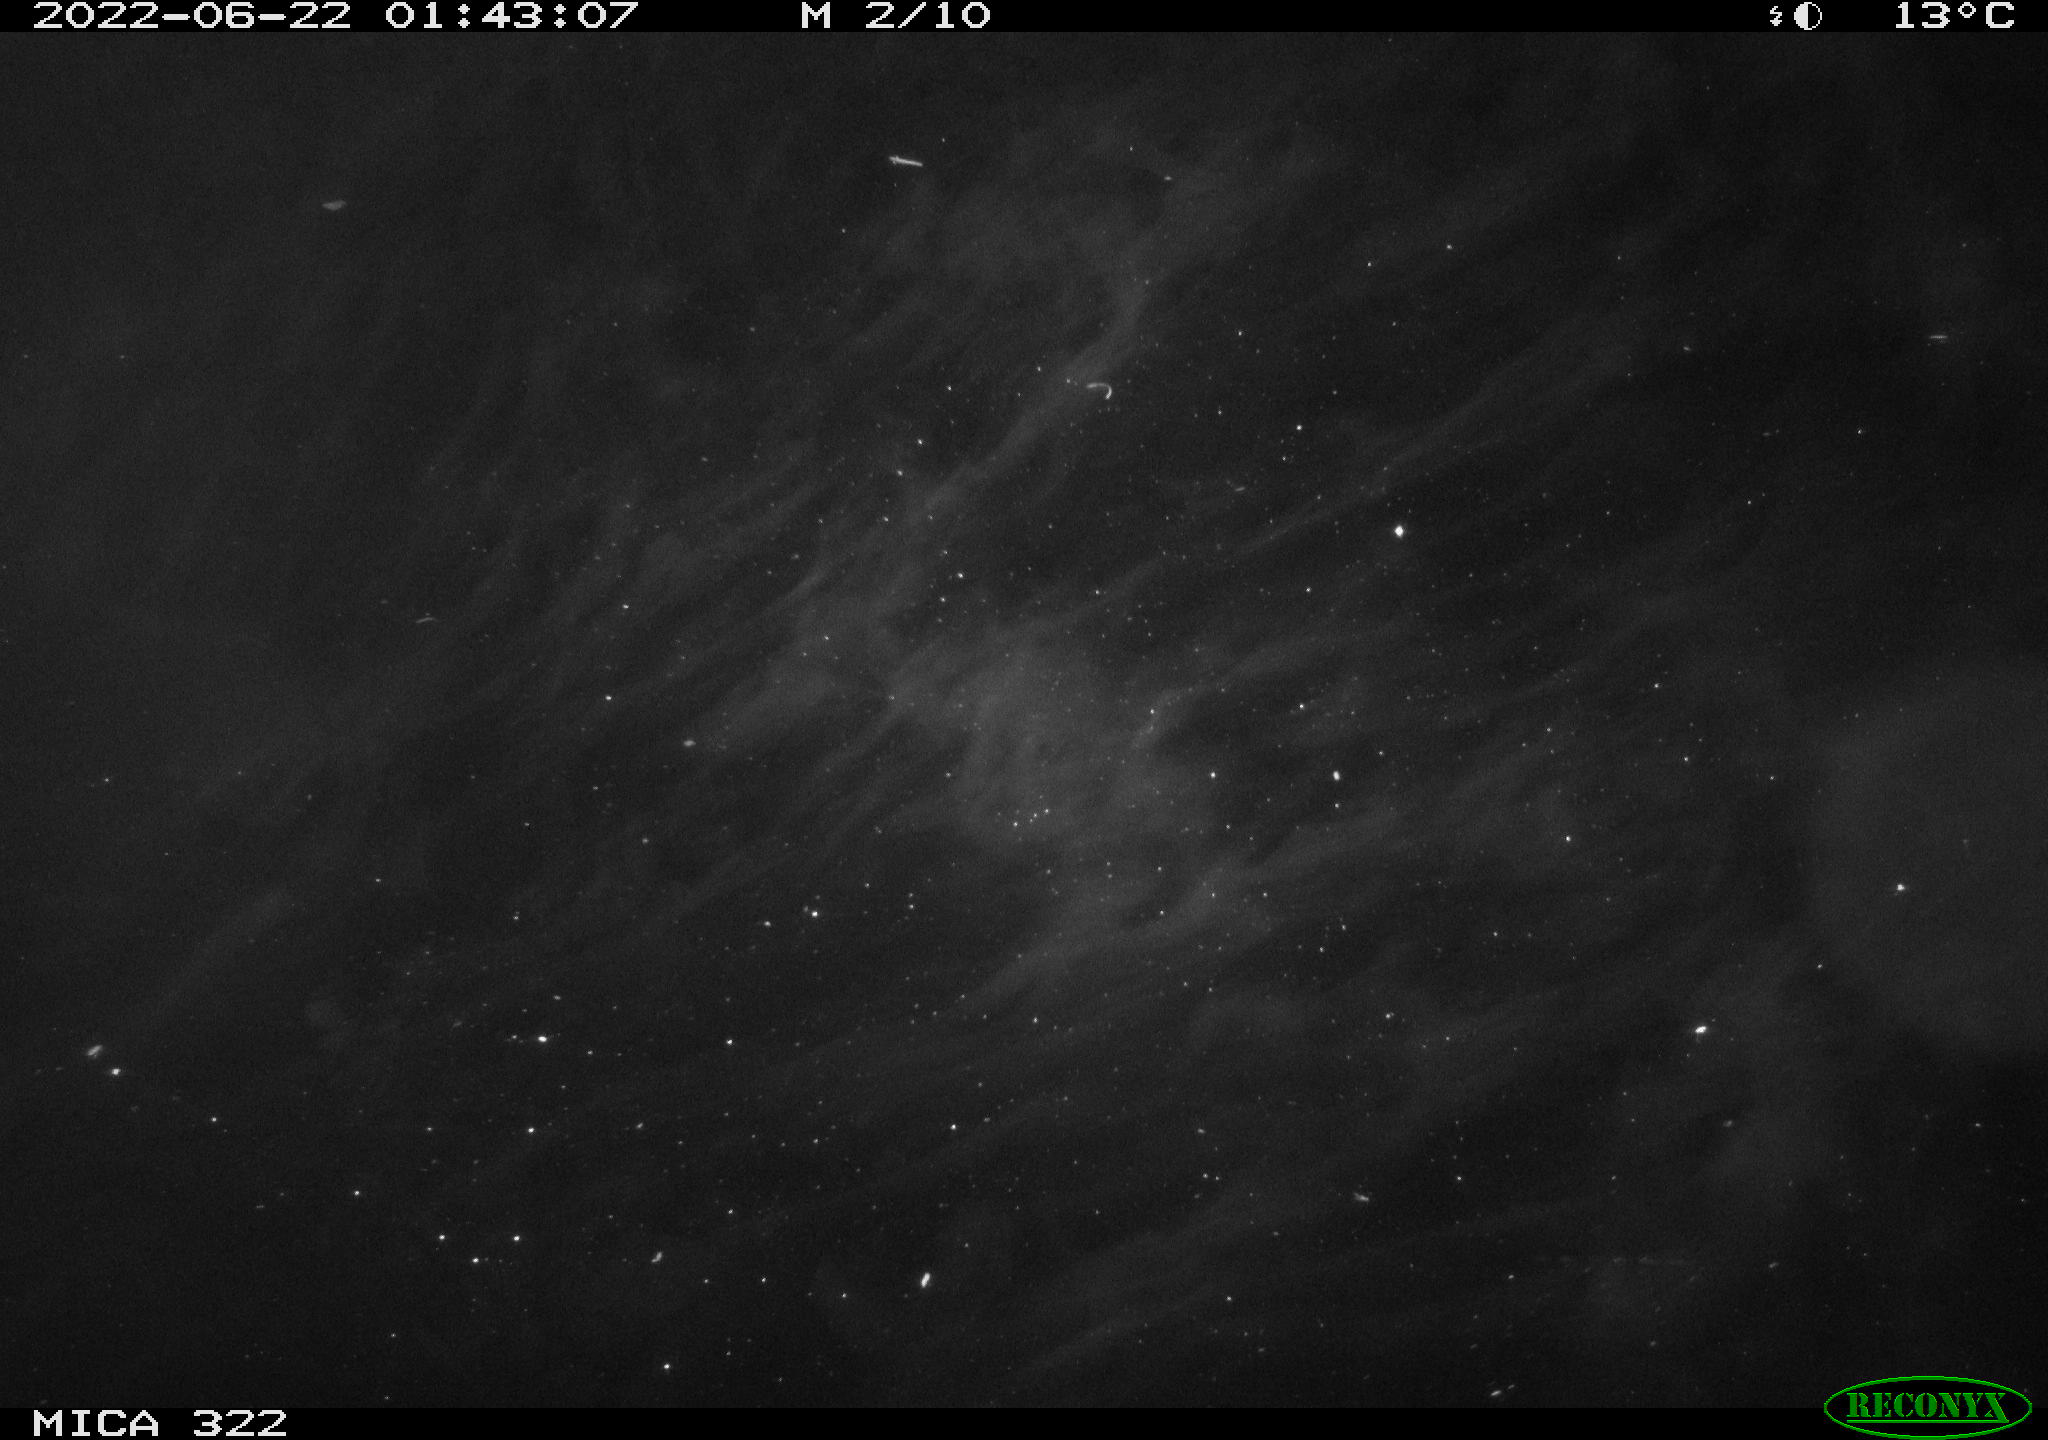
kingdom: Animalia
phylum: Chordata
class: Mammalia
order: Rodentia
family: Muridae
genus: Rattus
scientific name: Rattus norvegicus
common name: Brown rat
